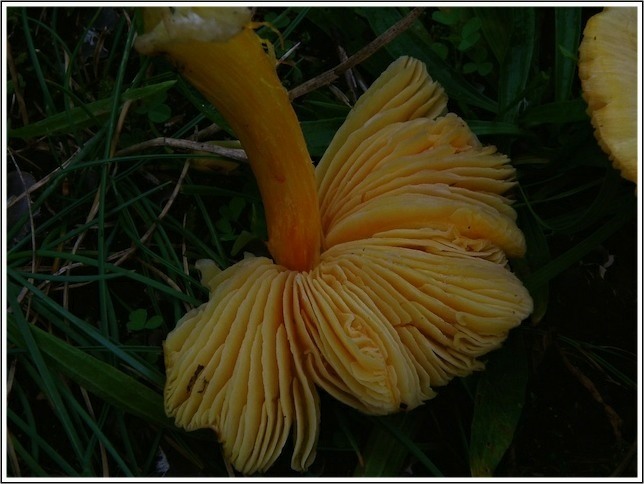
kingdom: Fungi
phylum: Basidiomycota
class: Agaricomycetes
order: Agaricales
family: Hygrophoraceae
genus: Hygrocybe
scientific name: Hygrocybe acutoconica
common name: spidspuklet vokshat
